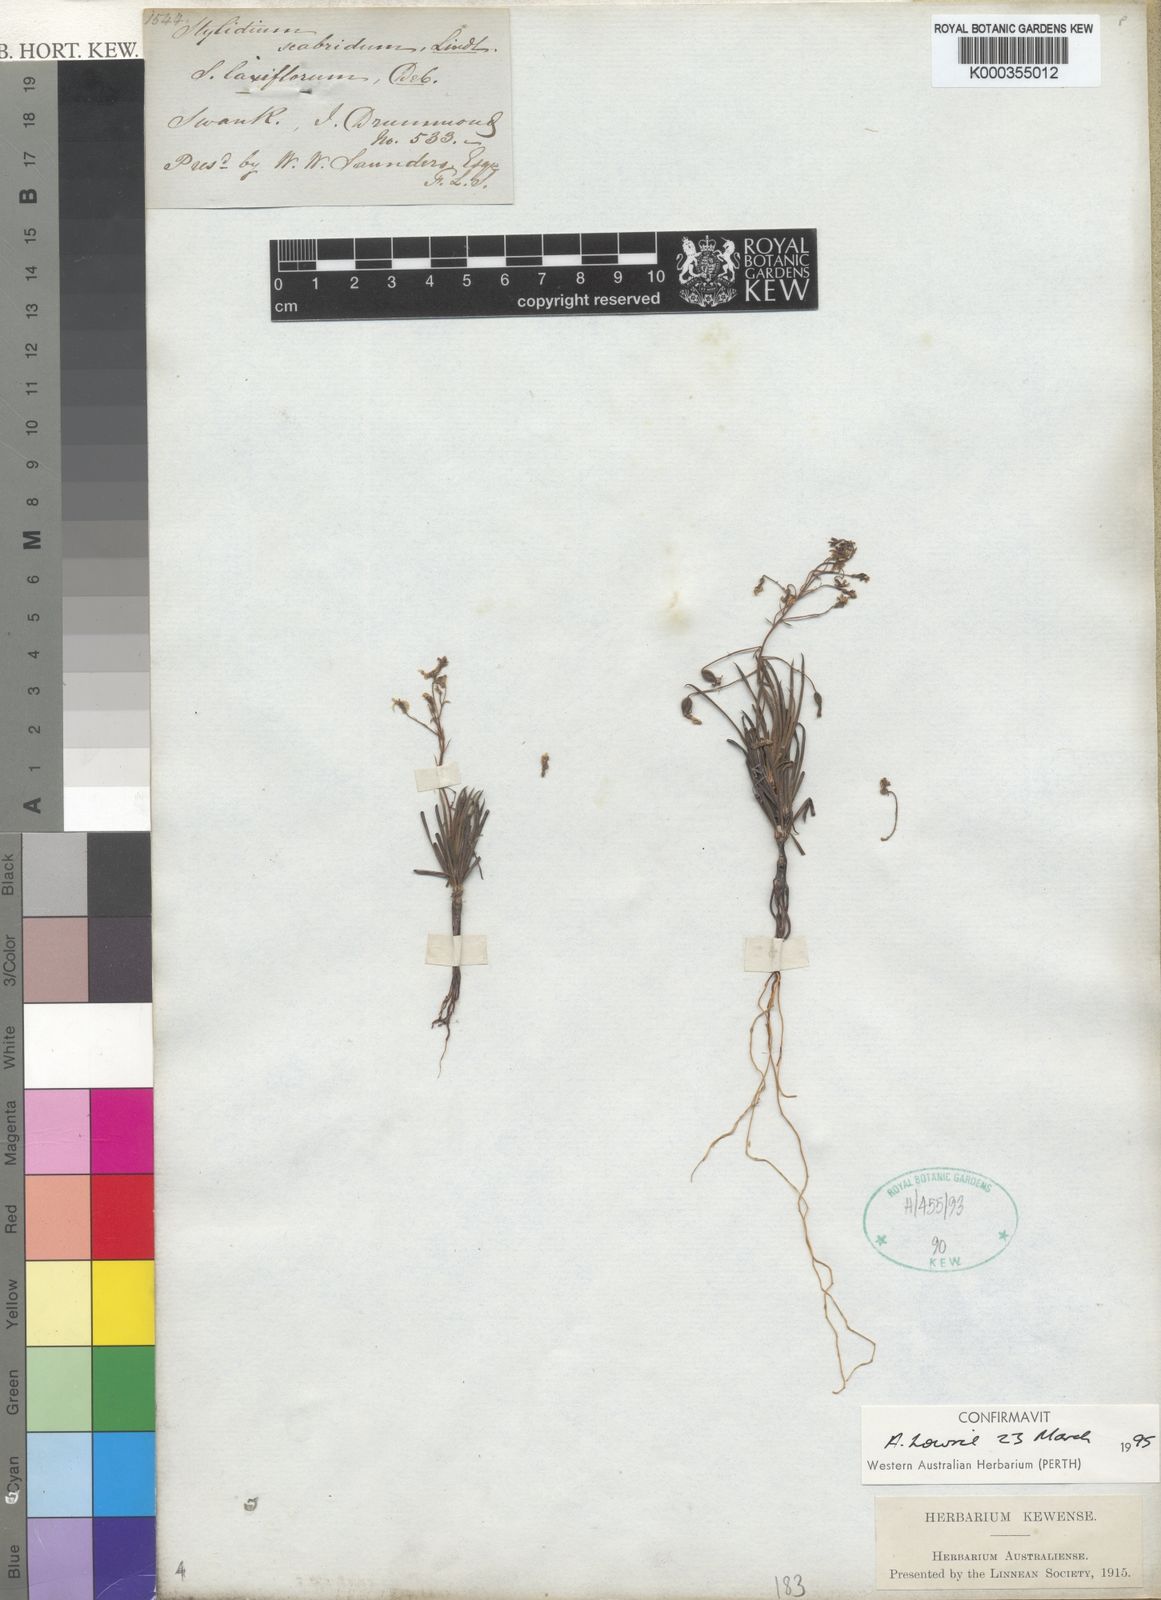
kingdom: Plantae
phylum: Tracheophyta
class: Magnoliopsida
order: Asterales
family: Stylidiaceae
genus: Stylidium
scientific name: Stylidium scabridum
